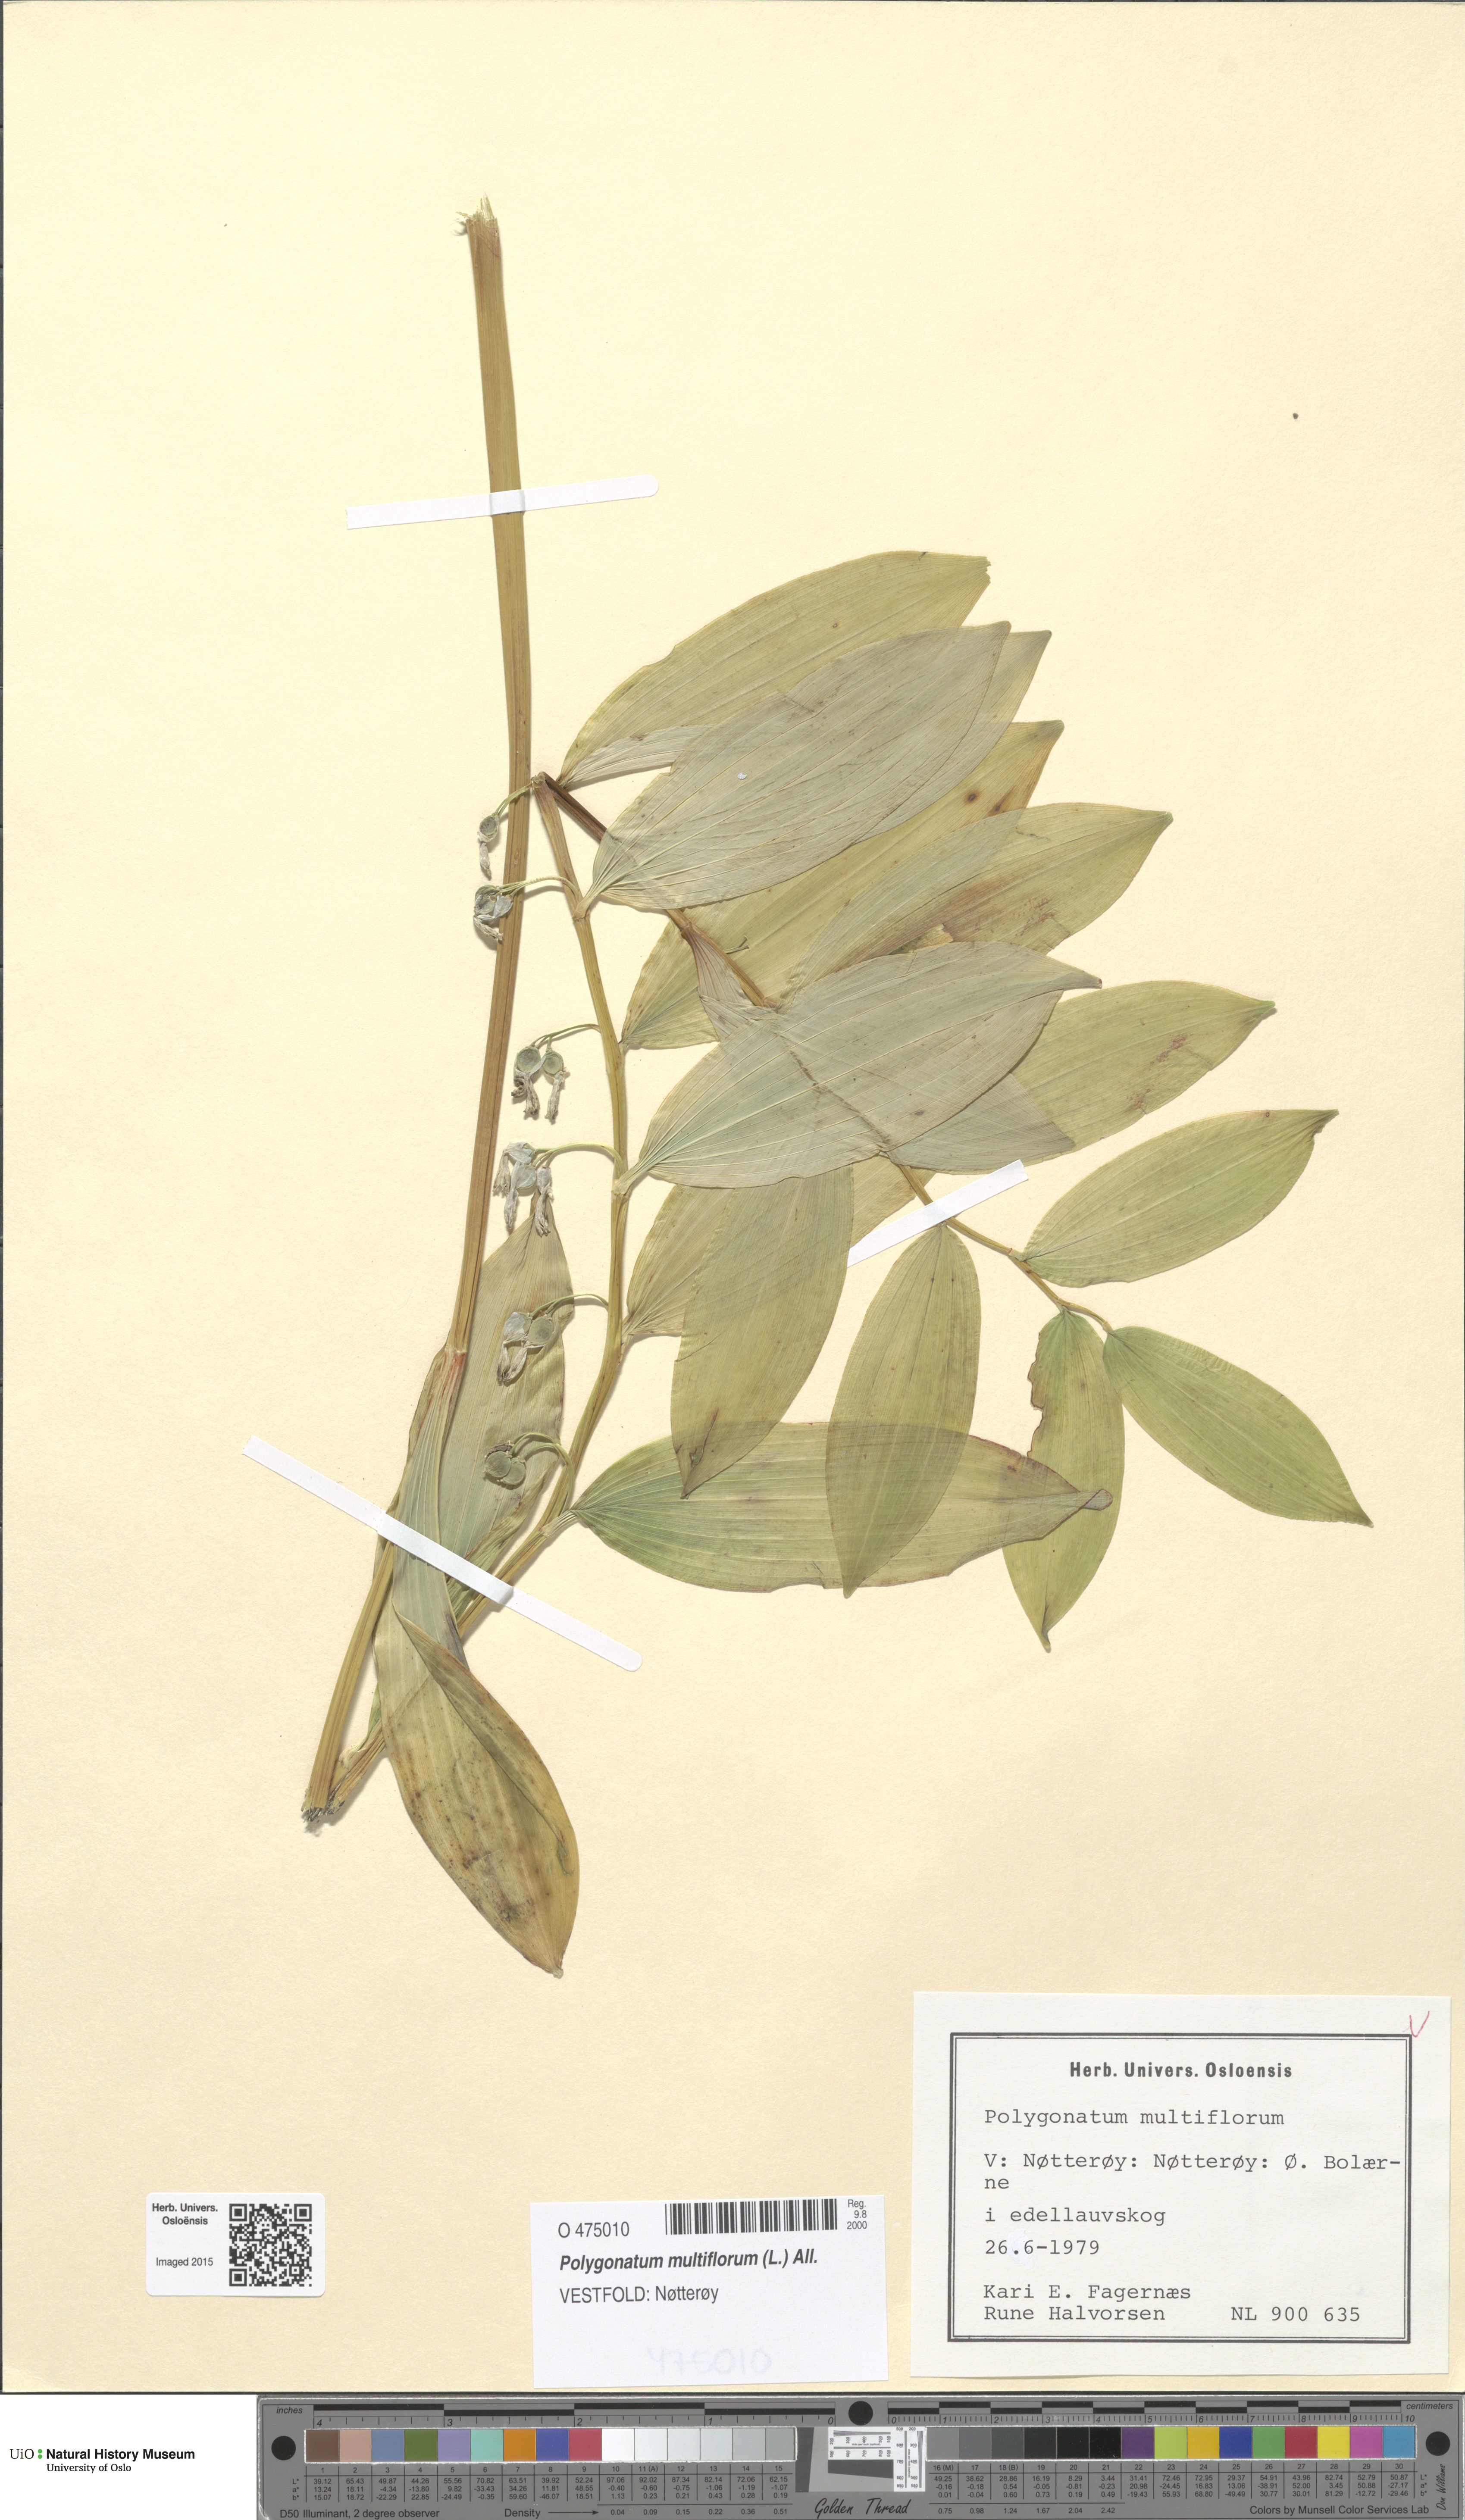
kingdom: Plantae
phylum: Tracheophyta
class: Liliopsida
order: Asparagales
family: Asparagaceae
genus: Polygonatum
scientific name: Polygonatum multiflorum
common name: Solomon's-seal
